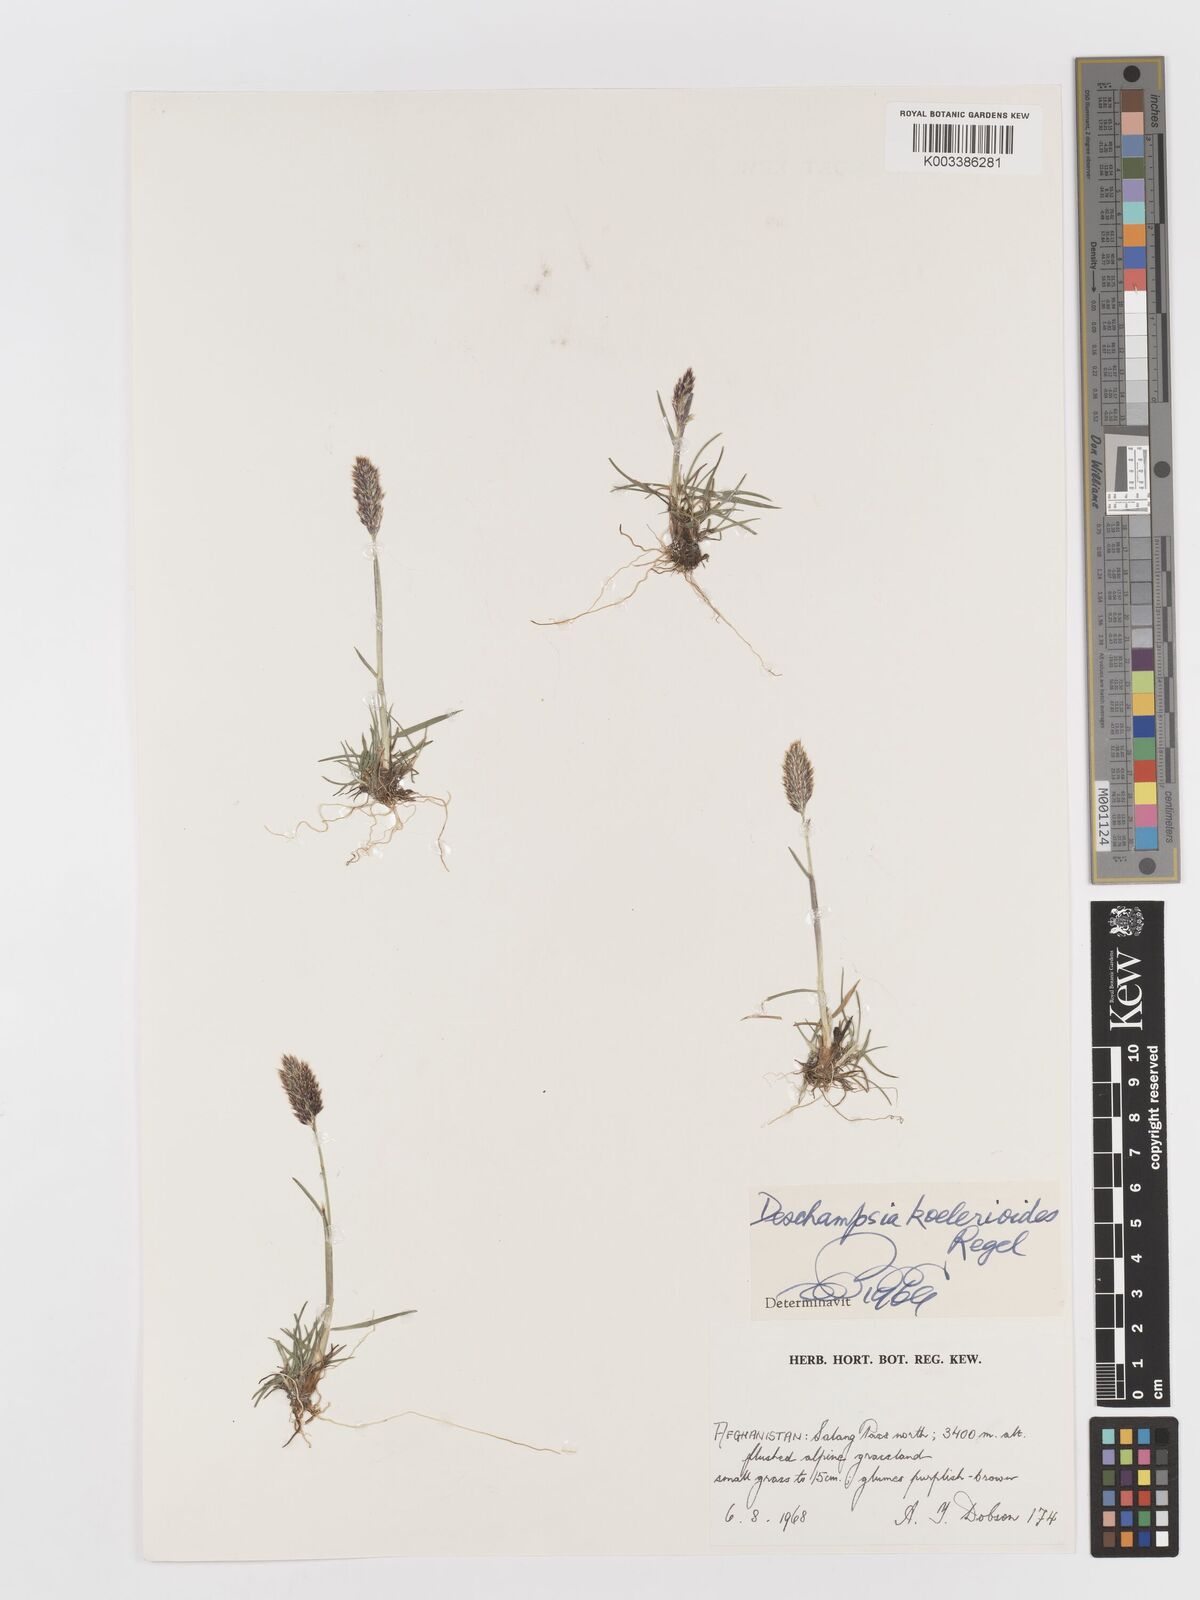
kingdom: Plantae
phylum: Tracheophyta
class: Liliopsida
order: Poales
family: Poaceae
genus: Deschampsia
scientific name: Deschampsia koelerioides
